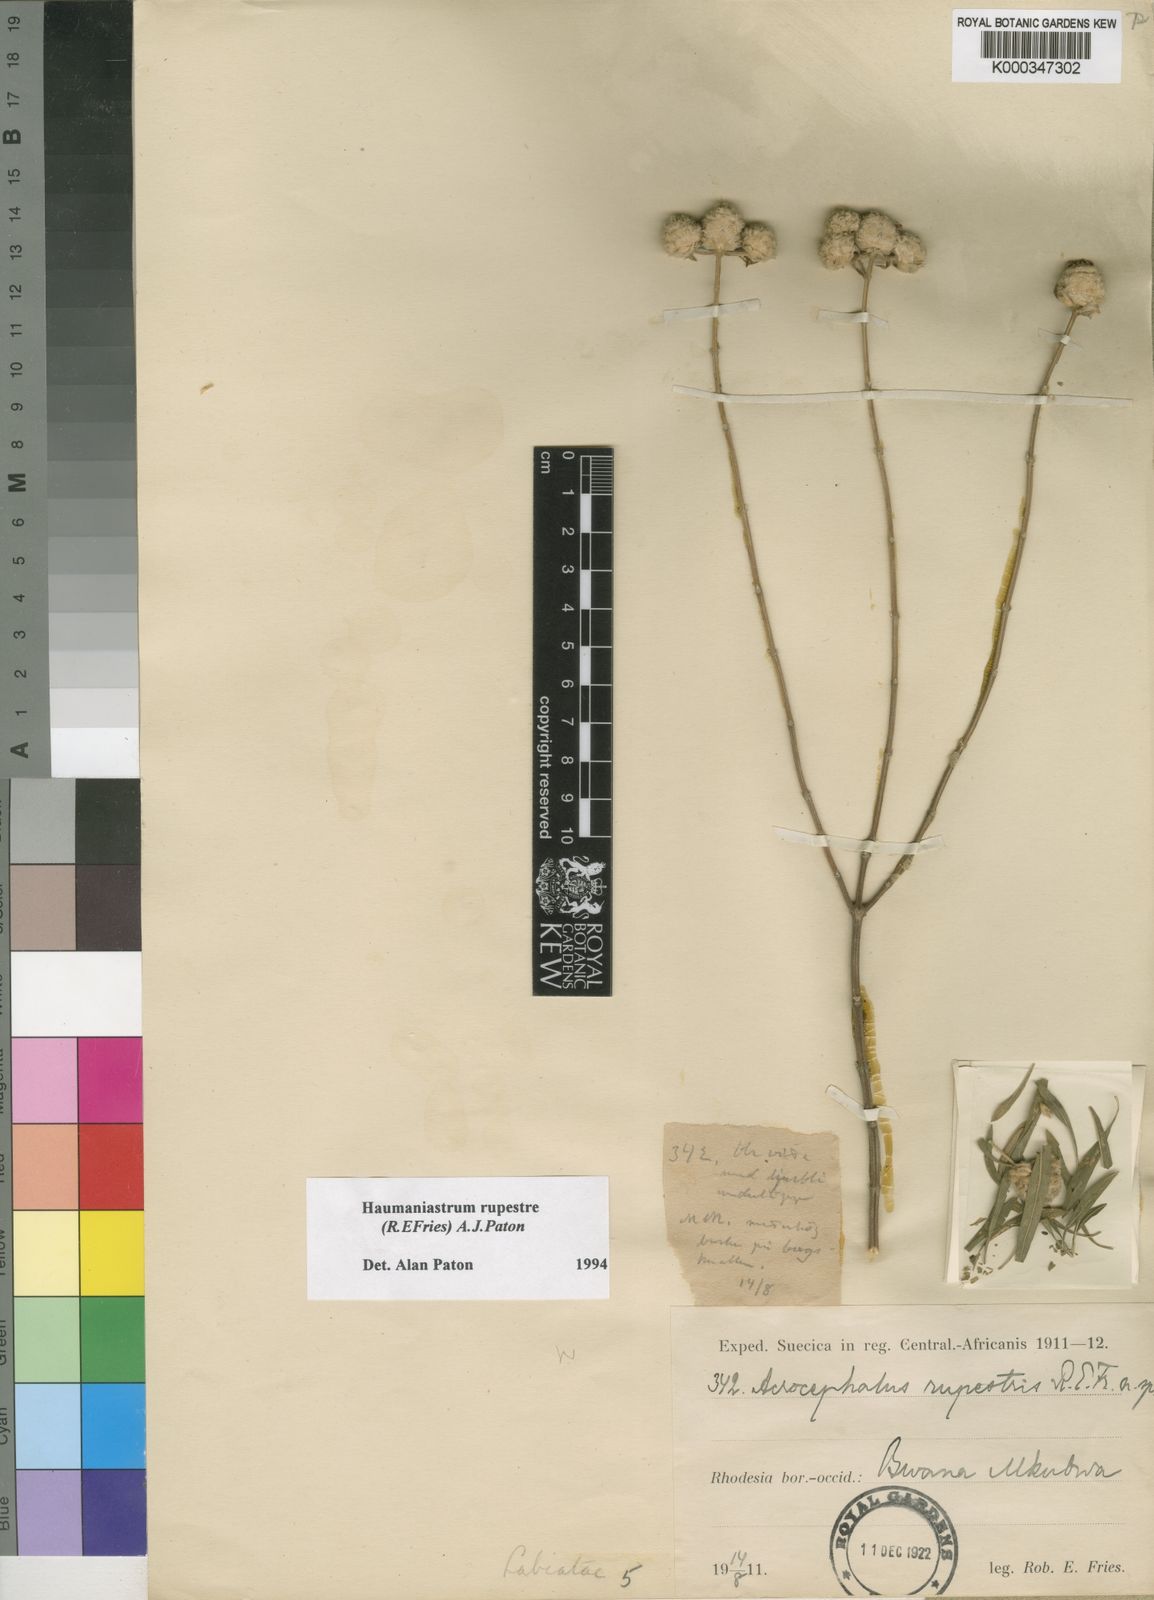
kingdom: Plantae
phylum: Tracheophyta
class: Magnoliopsida
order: Lamiales
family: Lamiaceae
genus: Haumaniastrum
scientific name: Haumaniastrum rupestre
